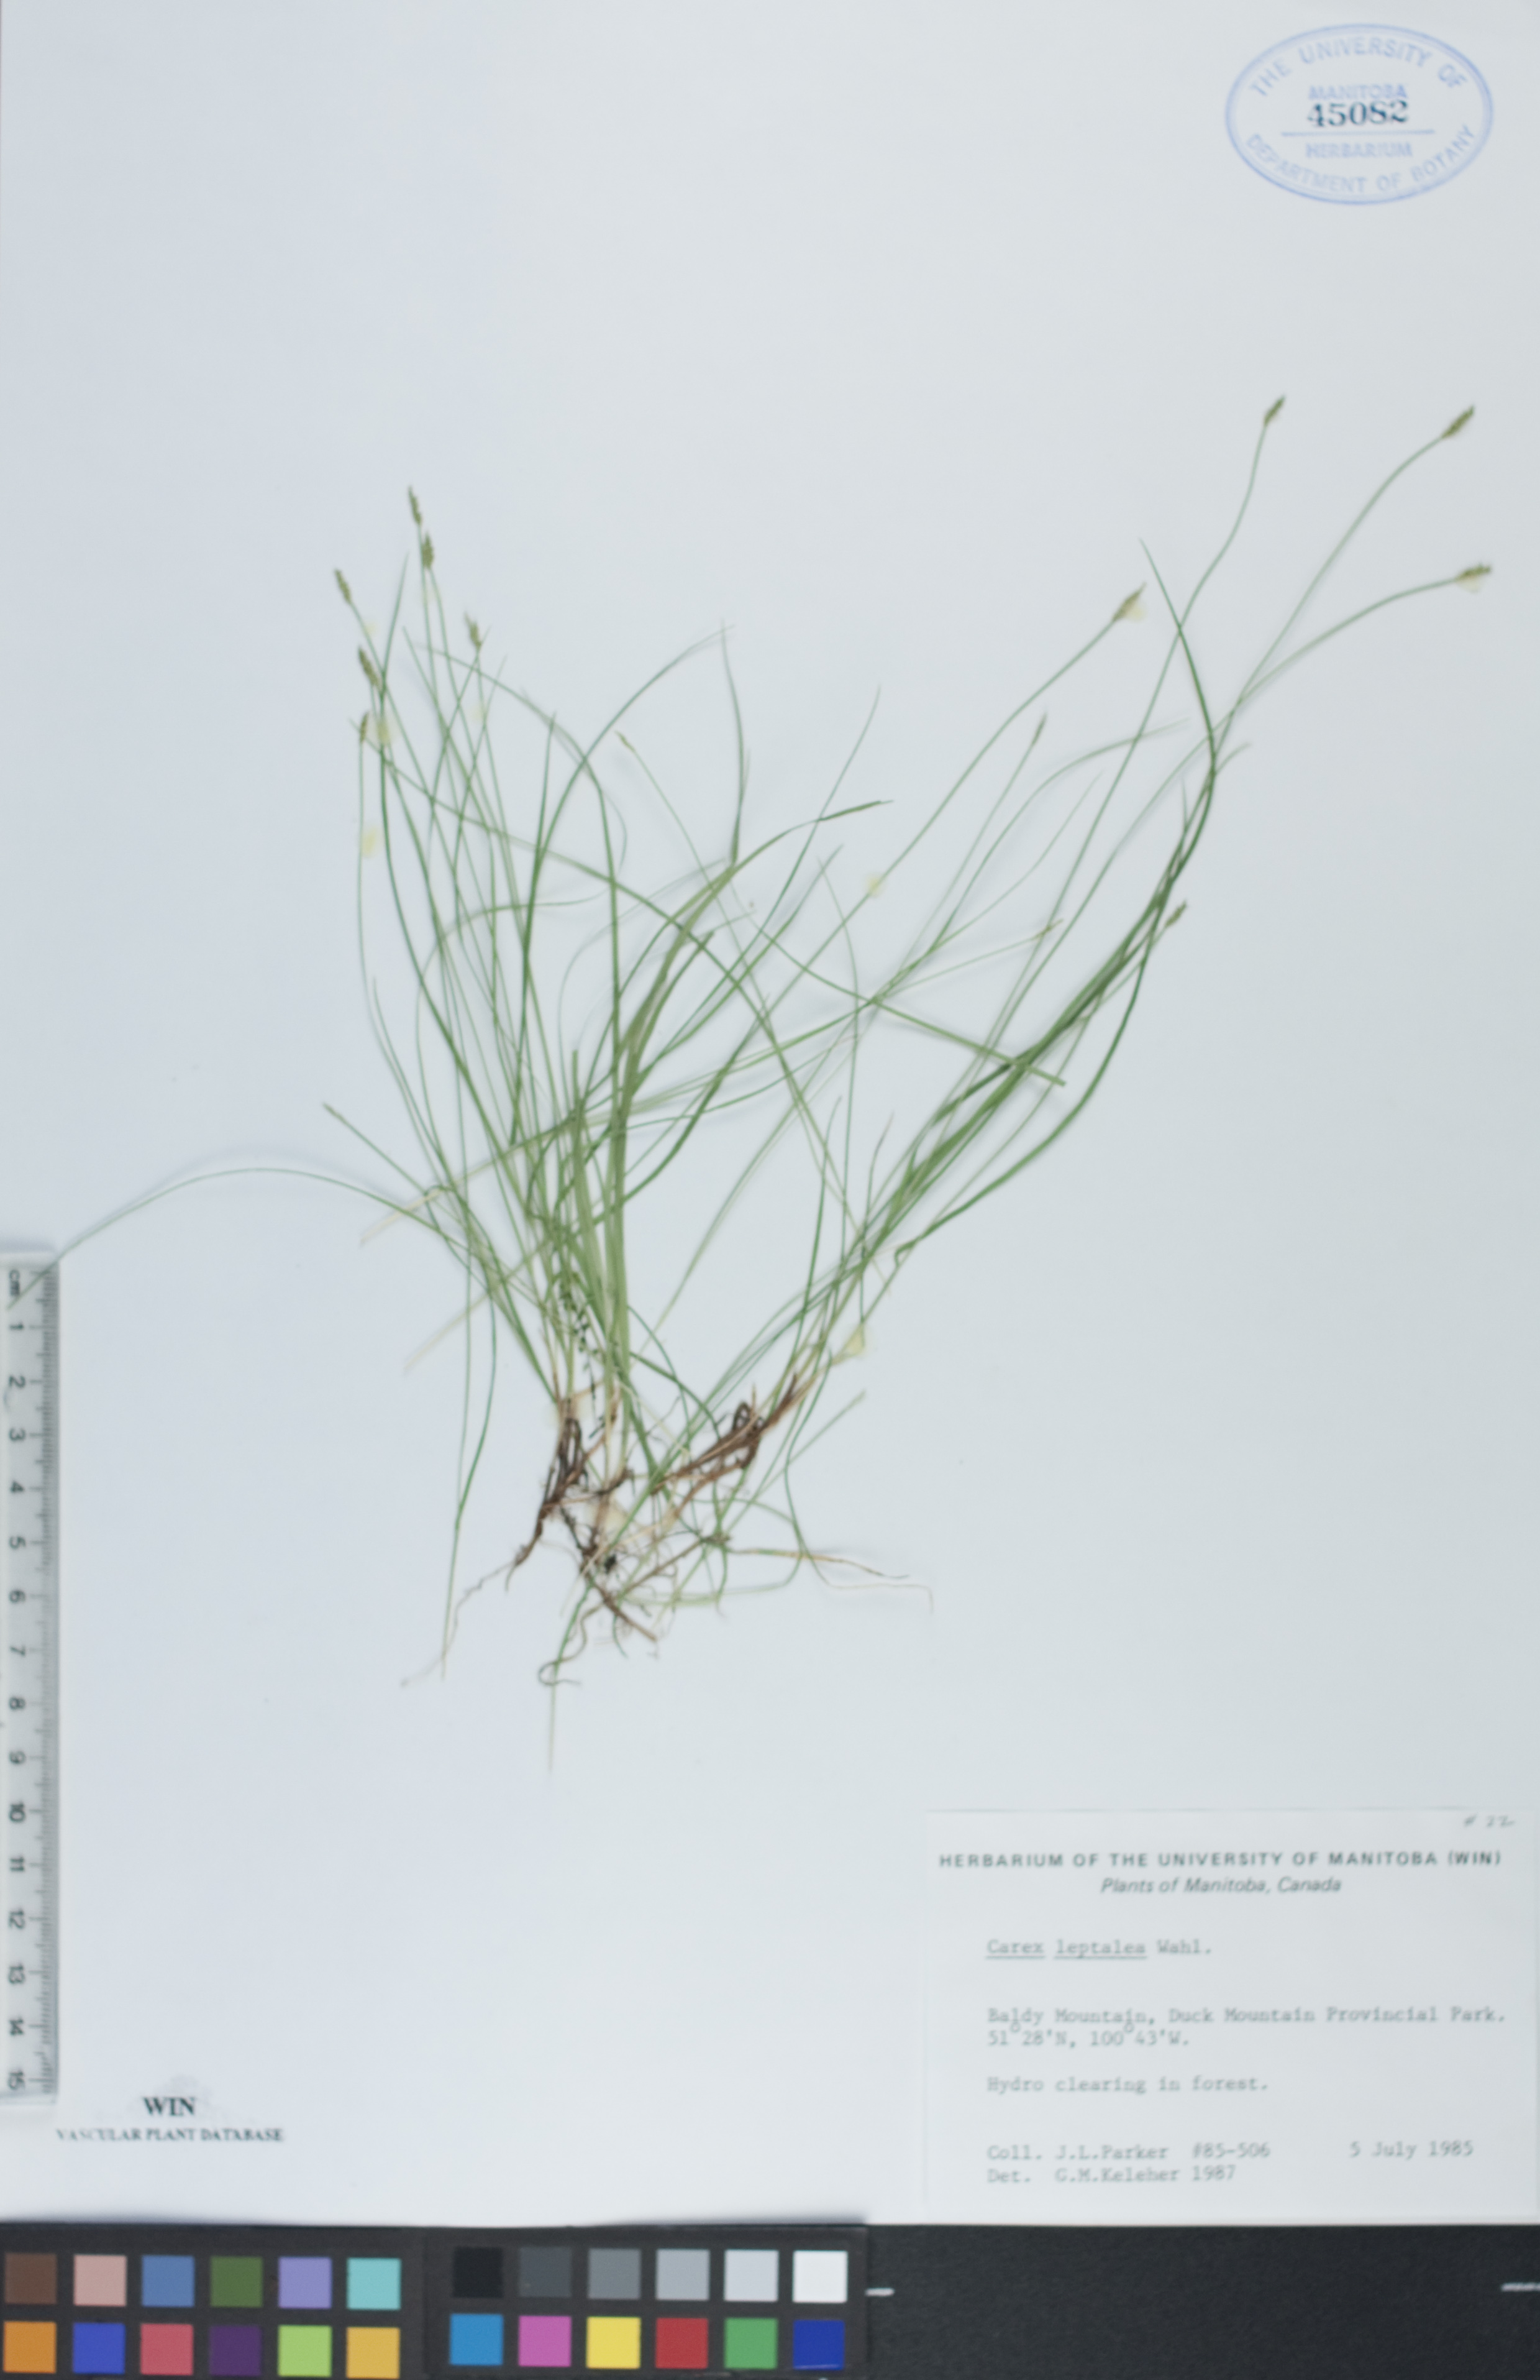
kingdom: Plantae
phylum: Tracheophyta
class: Liliopsida
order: Poales
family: Cyperaceae
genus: Carex
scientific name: Carex leptalea
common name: Bristly-stalked sedge
